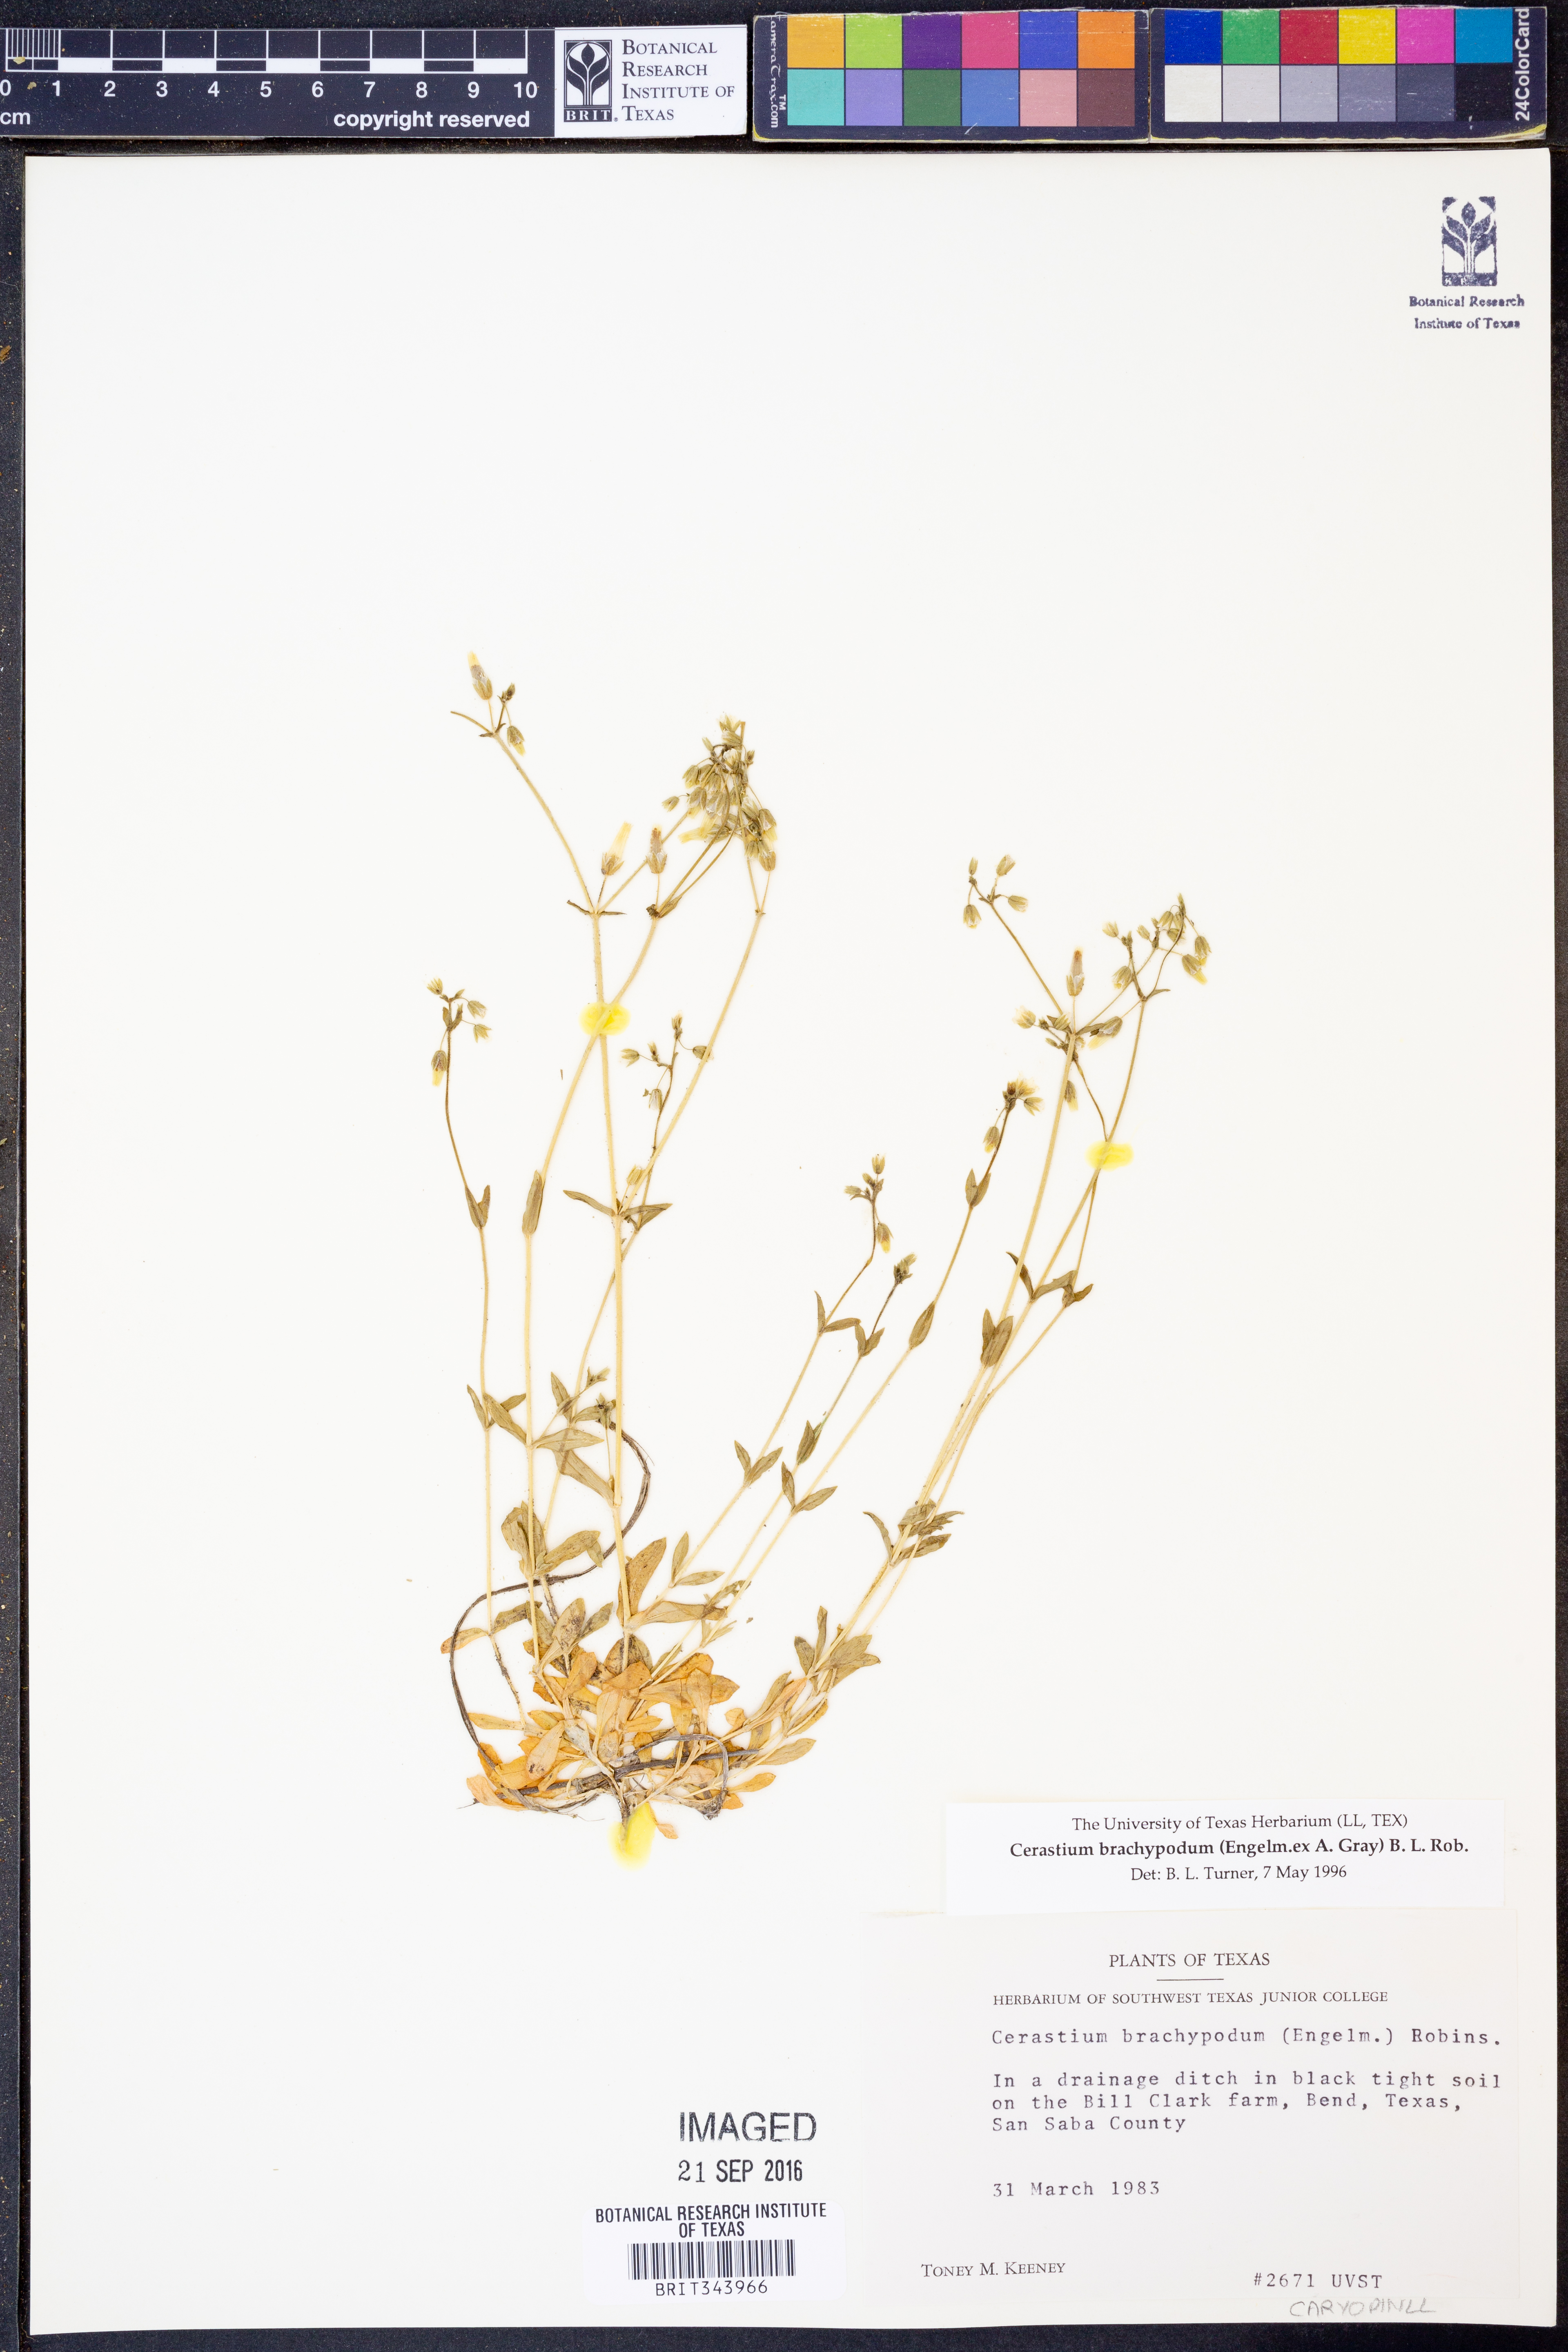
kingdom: Plantae
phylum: Tracheophyta
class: Magnoliopsida
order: Caryophyllales
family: Caryophyllaceae
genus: Cerastium
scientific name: Cerastium brachypodum
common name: Short-pedicelled nodding chickweed
